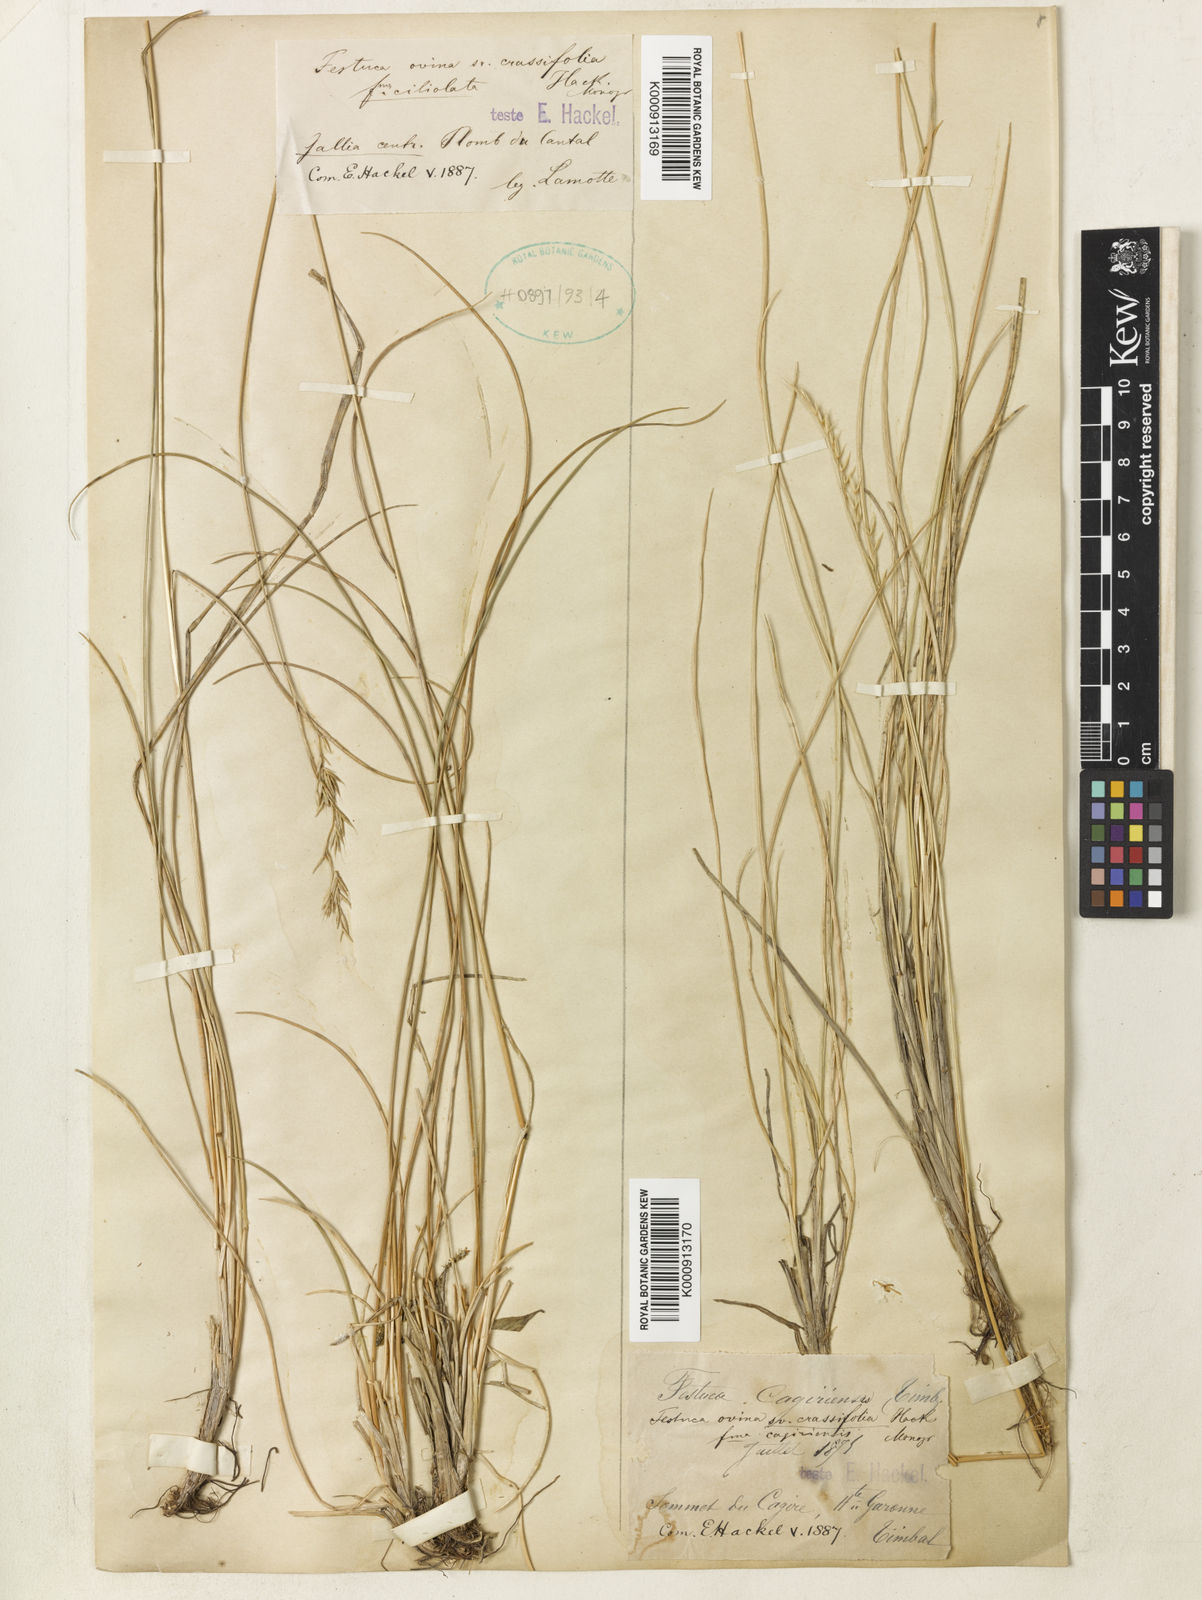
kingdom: Plantae
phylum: Tracheophyta
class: Liliopsida
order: Poales
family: Poaceae
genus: Festuca
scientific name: Festuca laevigata
